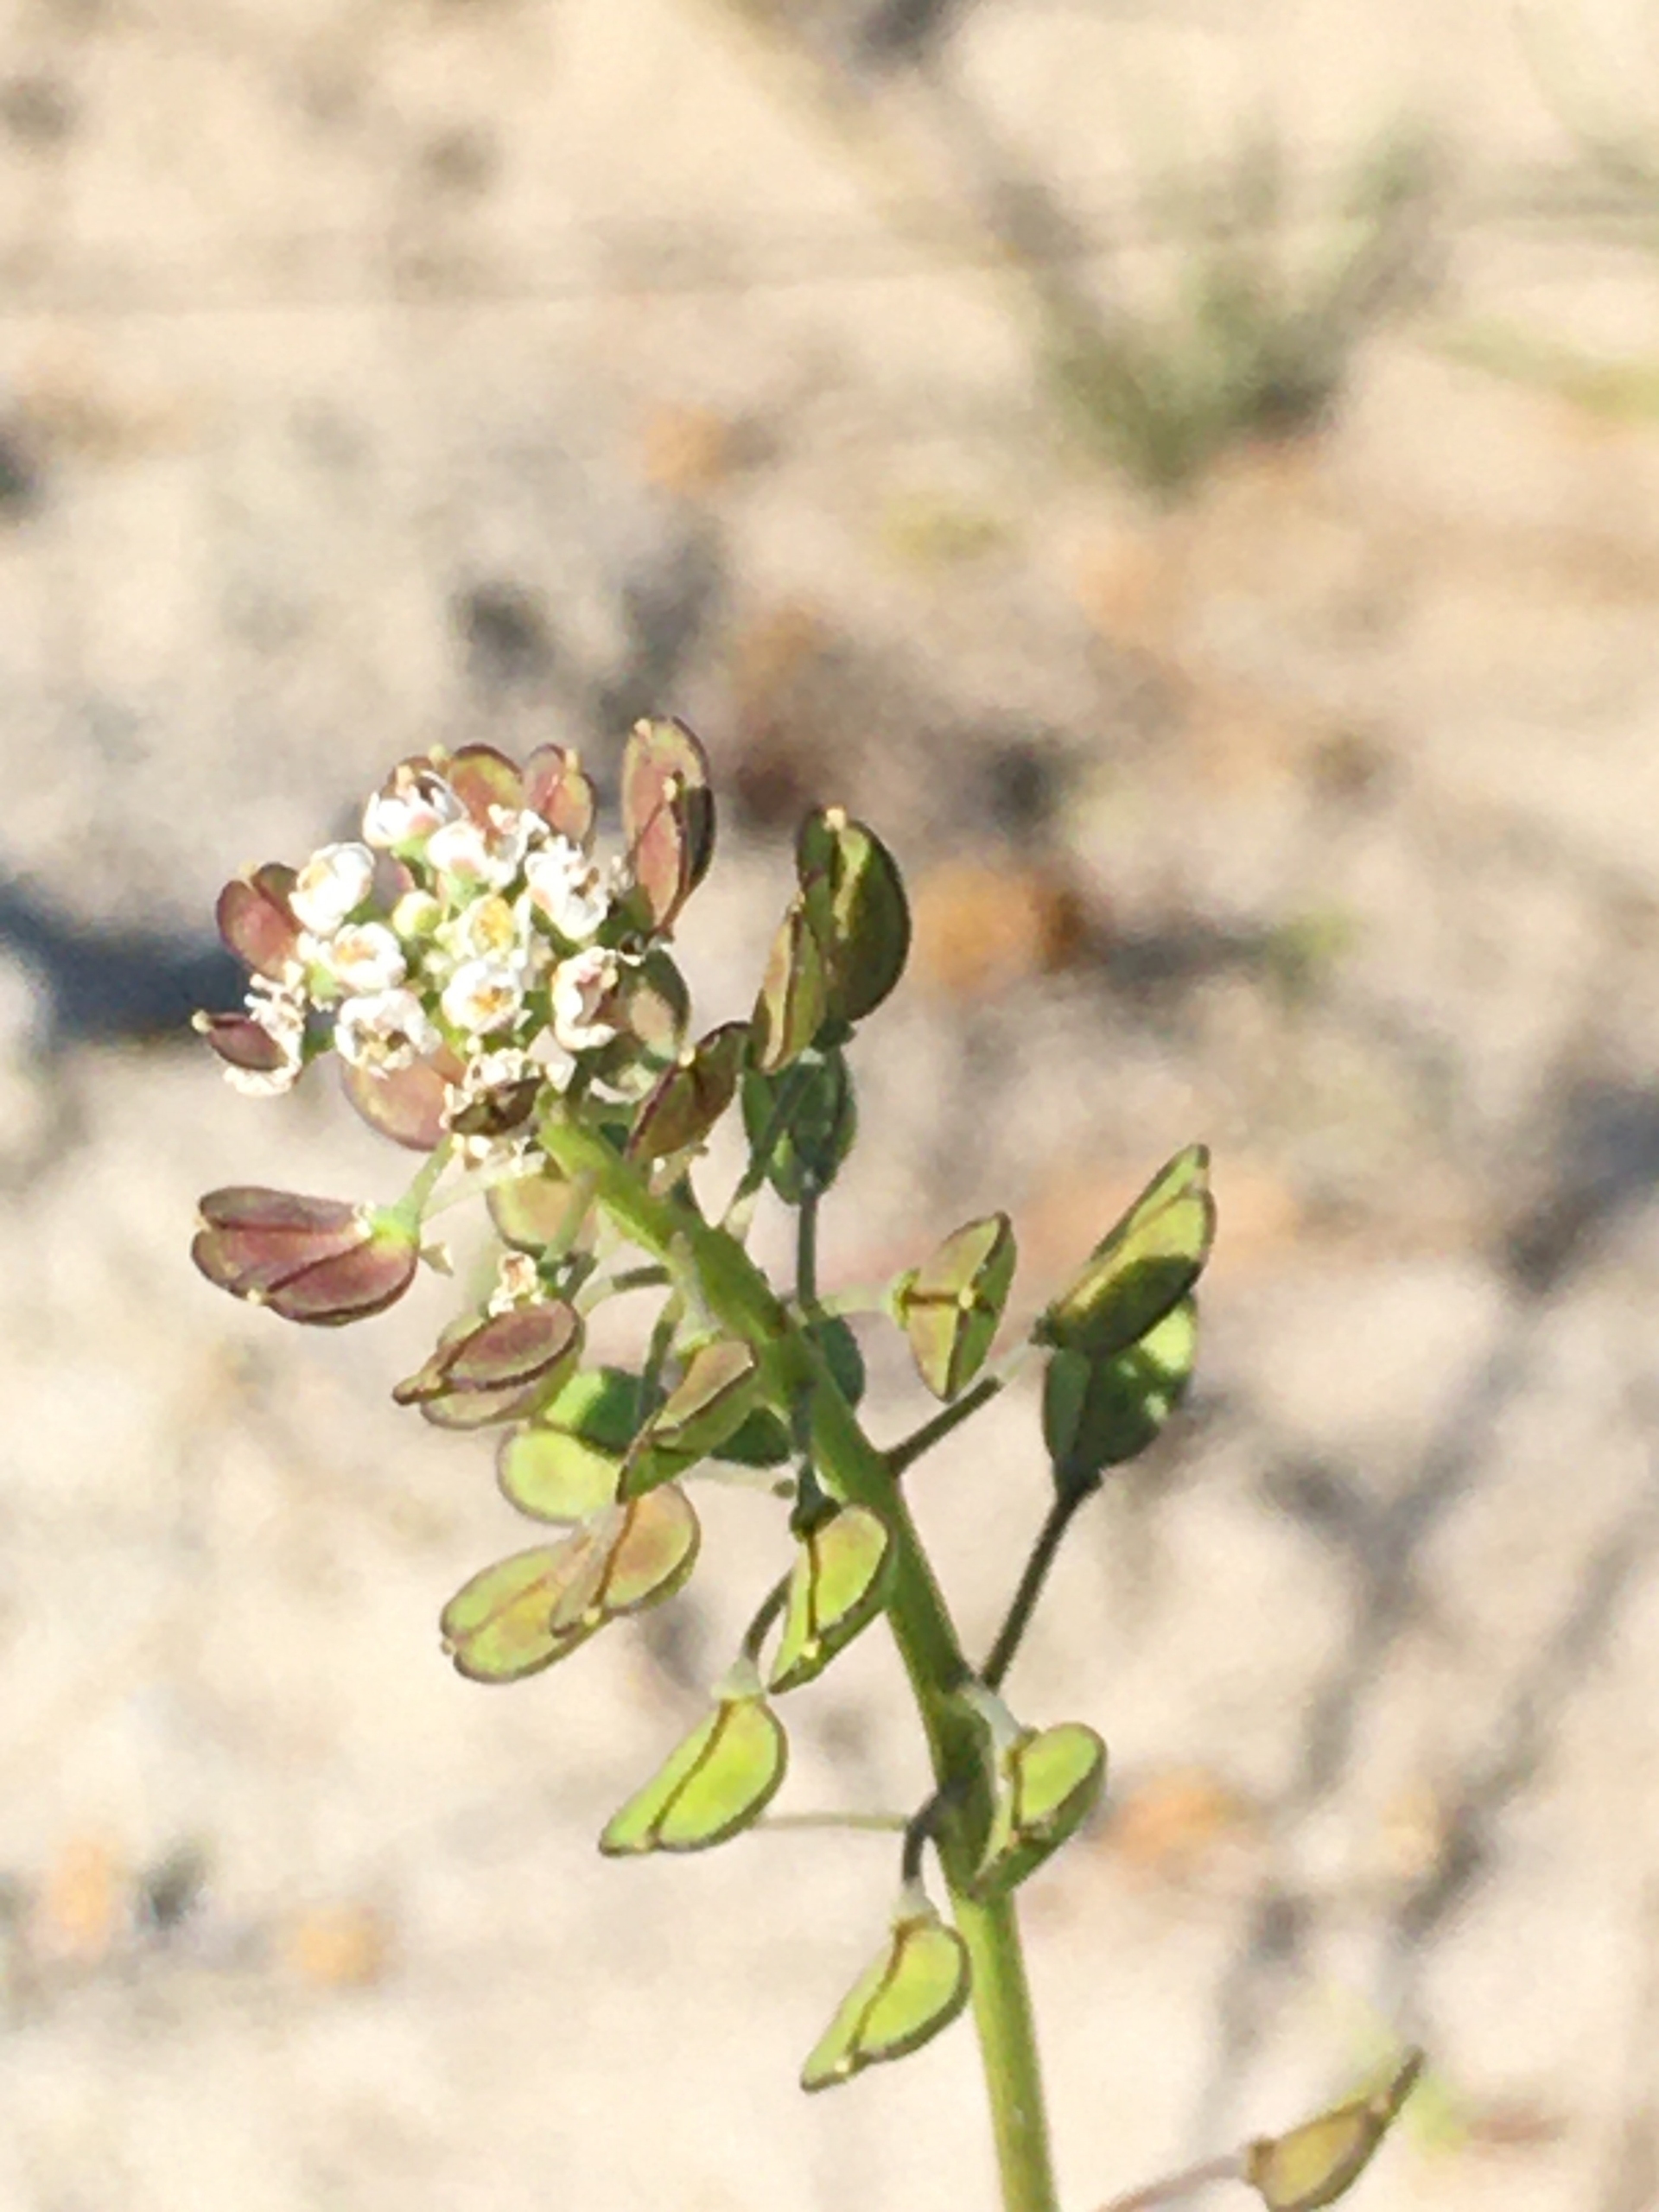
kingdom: Plantae
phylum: Tracheophyta
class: Magnoliopsida
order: Brassicales
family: Brassicaceae
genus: Teesdalia
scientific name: Teesdalia nudicaulis
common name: Flipkrave
